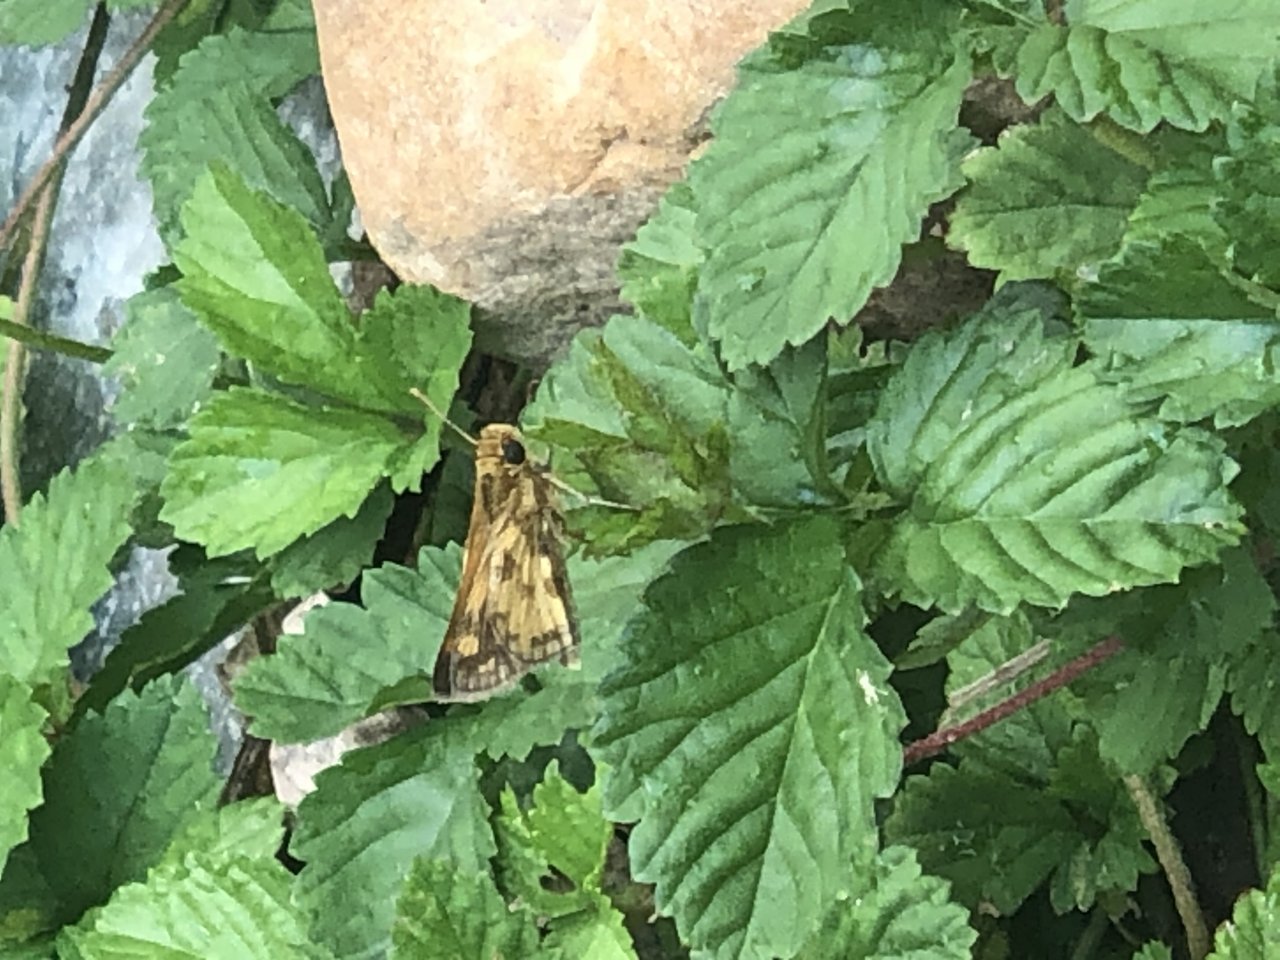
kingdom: Animalia
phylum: Arthropoda
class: Insecta
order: Lepidoptera
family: Hesperiidae
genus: Polites
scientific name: Polites coras
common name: Peck's Skipper
